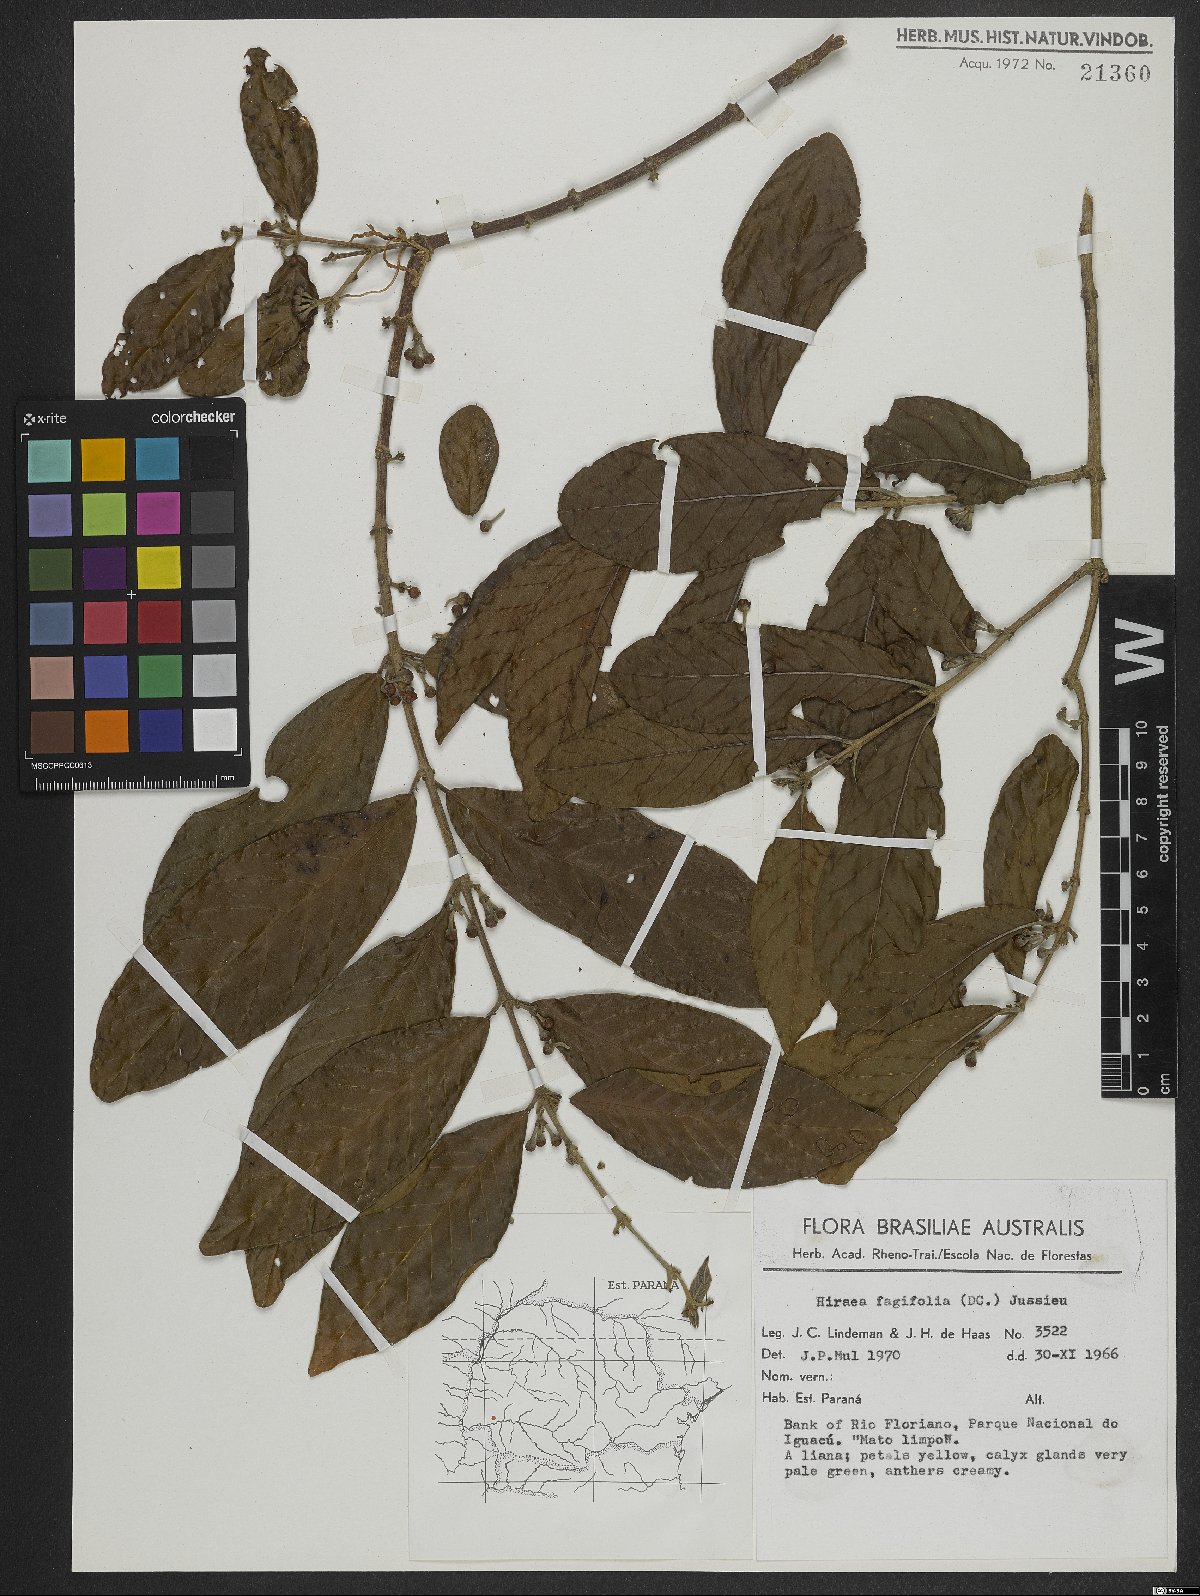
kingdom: Plantae
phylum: Tracheophyta
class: Magnoliopsida
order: Malpighiales
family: Malpighiaceae
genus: Hiraea
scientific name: Hiraea fagifolia
